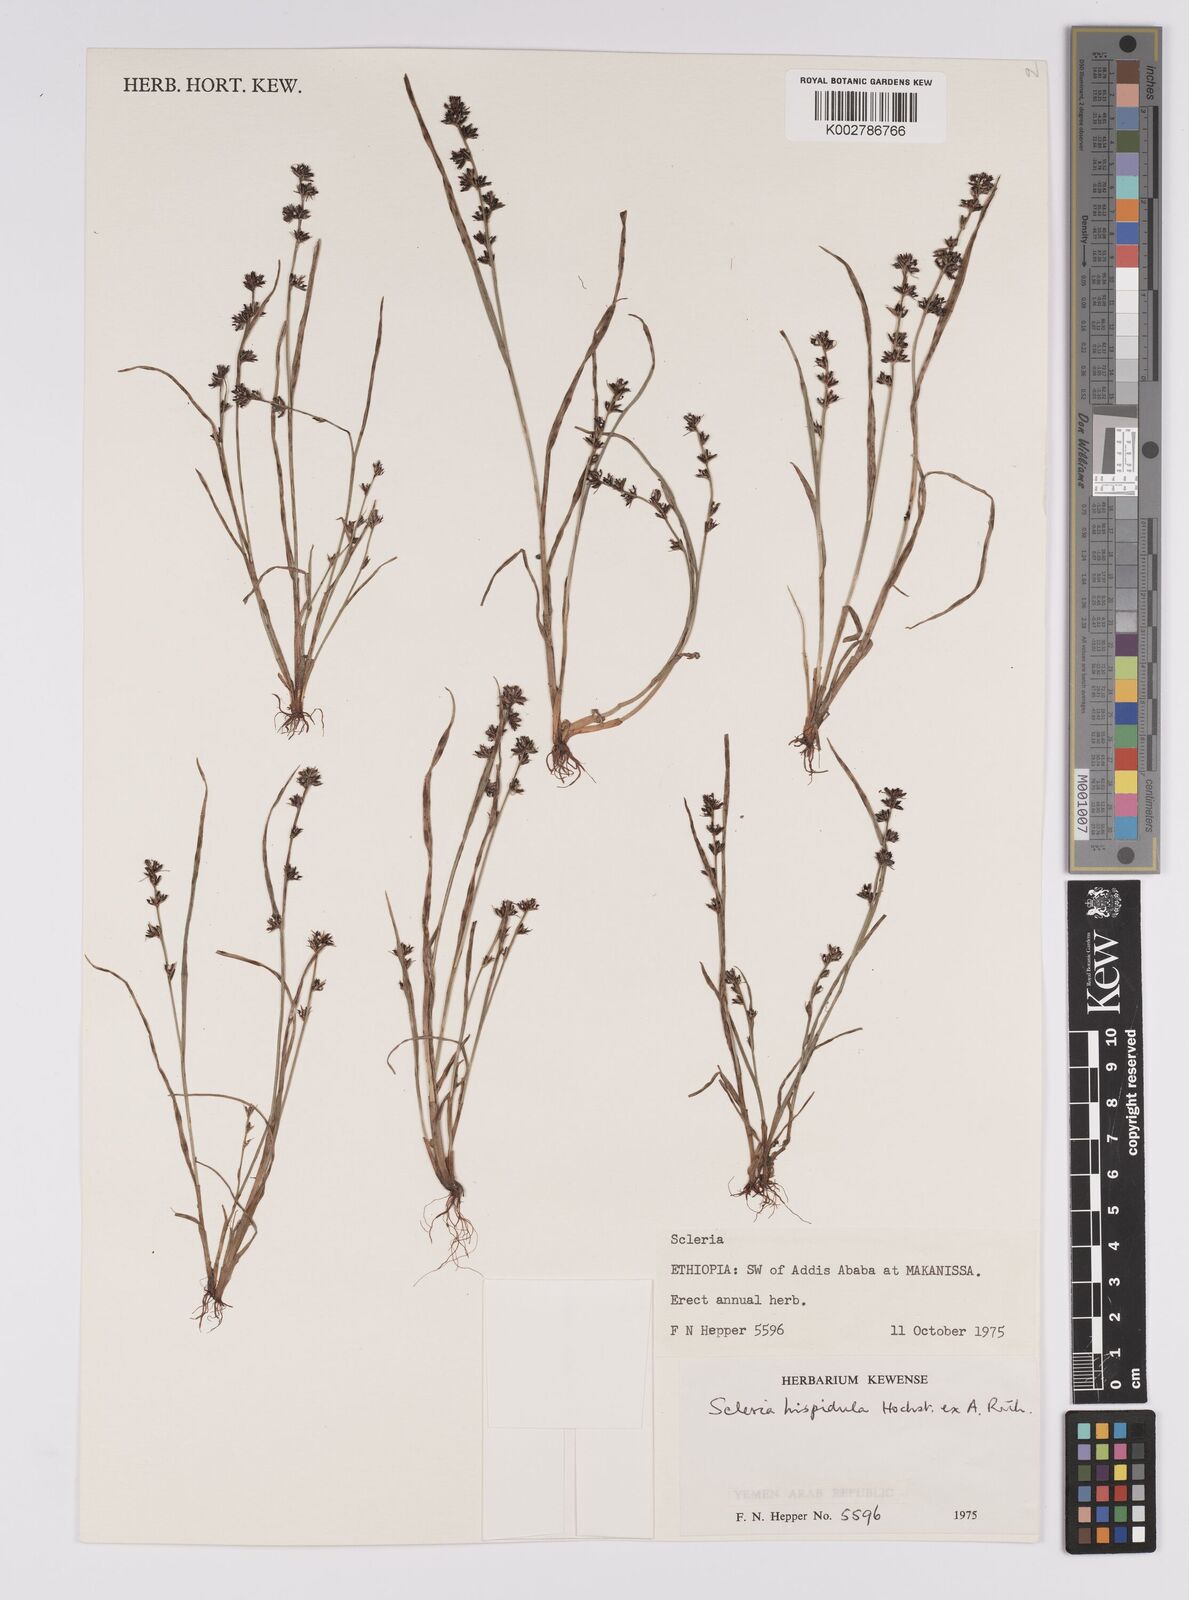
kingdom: Plantae
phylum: Tracheophyta
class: Liliopsida
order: Poales
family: Cyperaceae
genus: Scleria
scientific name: Scleria hispidula
